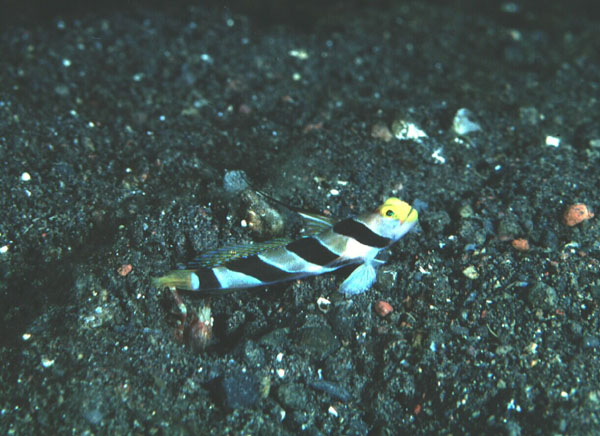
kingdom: Animalia
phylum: Chordata
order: Perciformes
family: Gobiidae
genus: Stonogobiops
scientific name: Stonogobiops nematodes
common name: Black-rayed shrimp-goby
